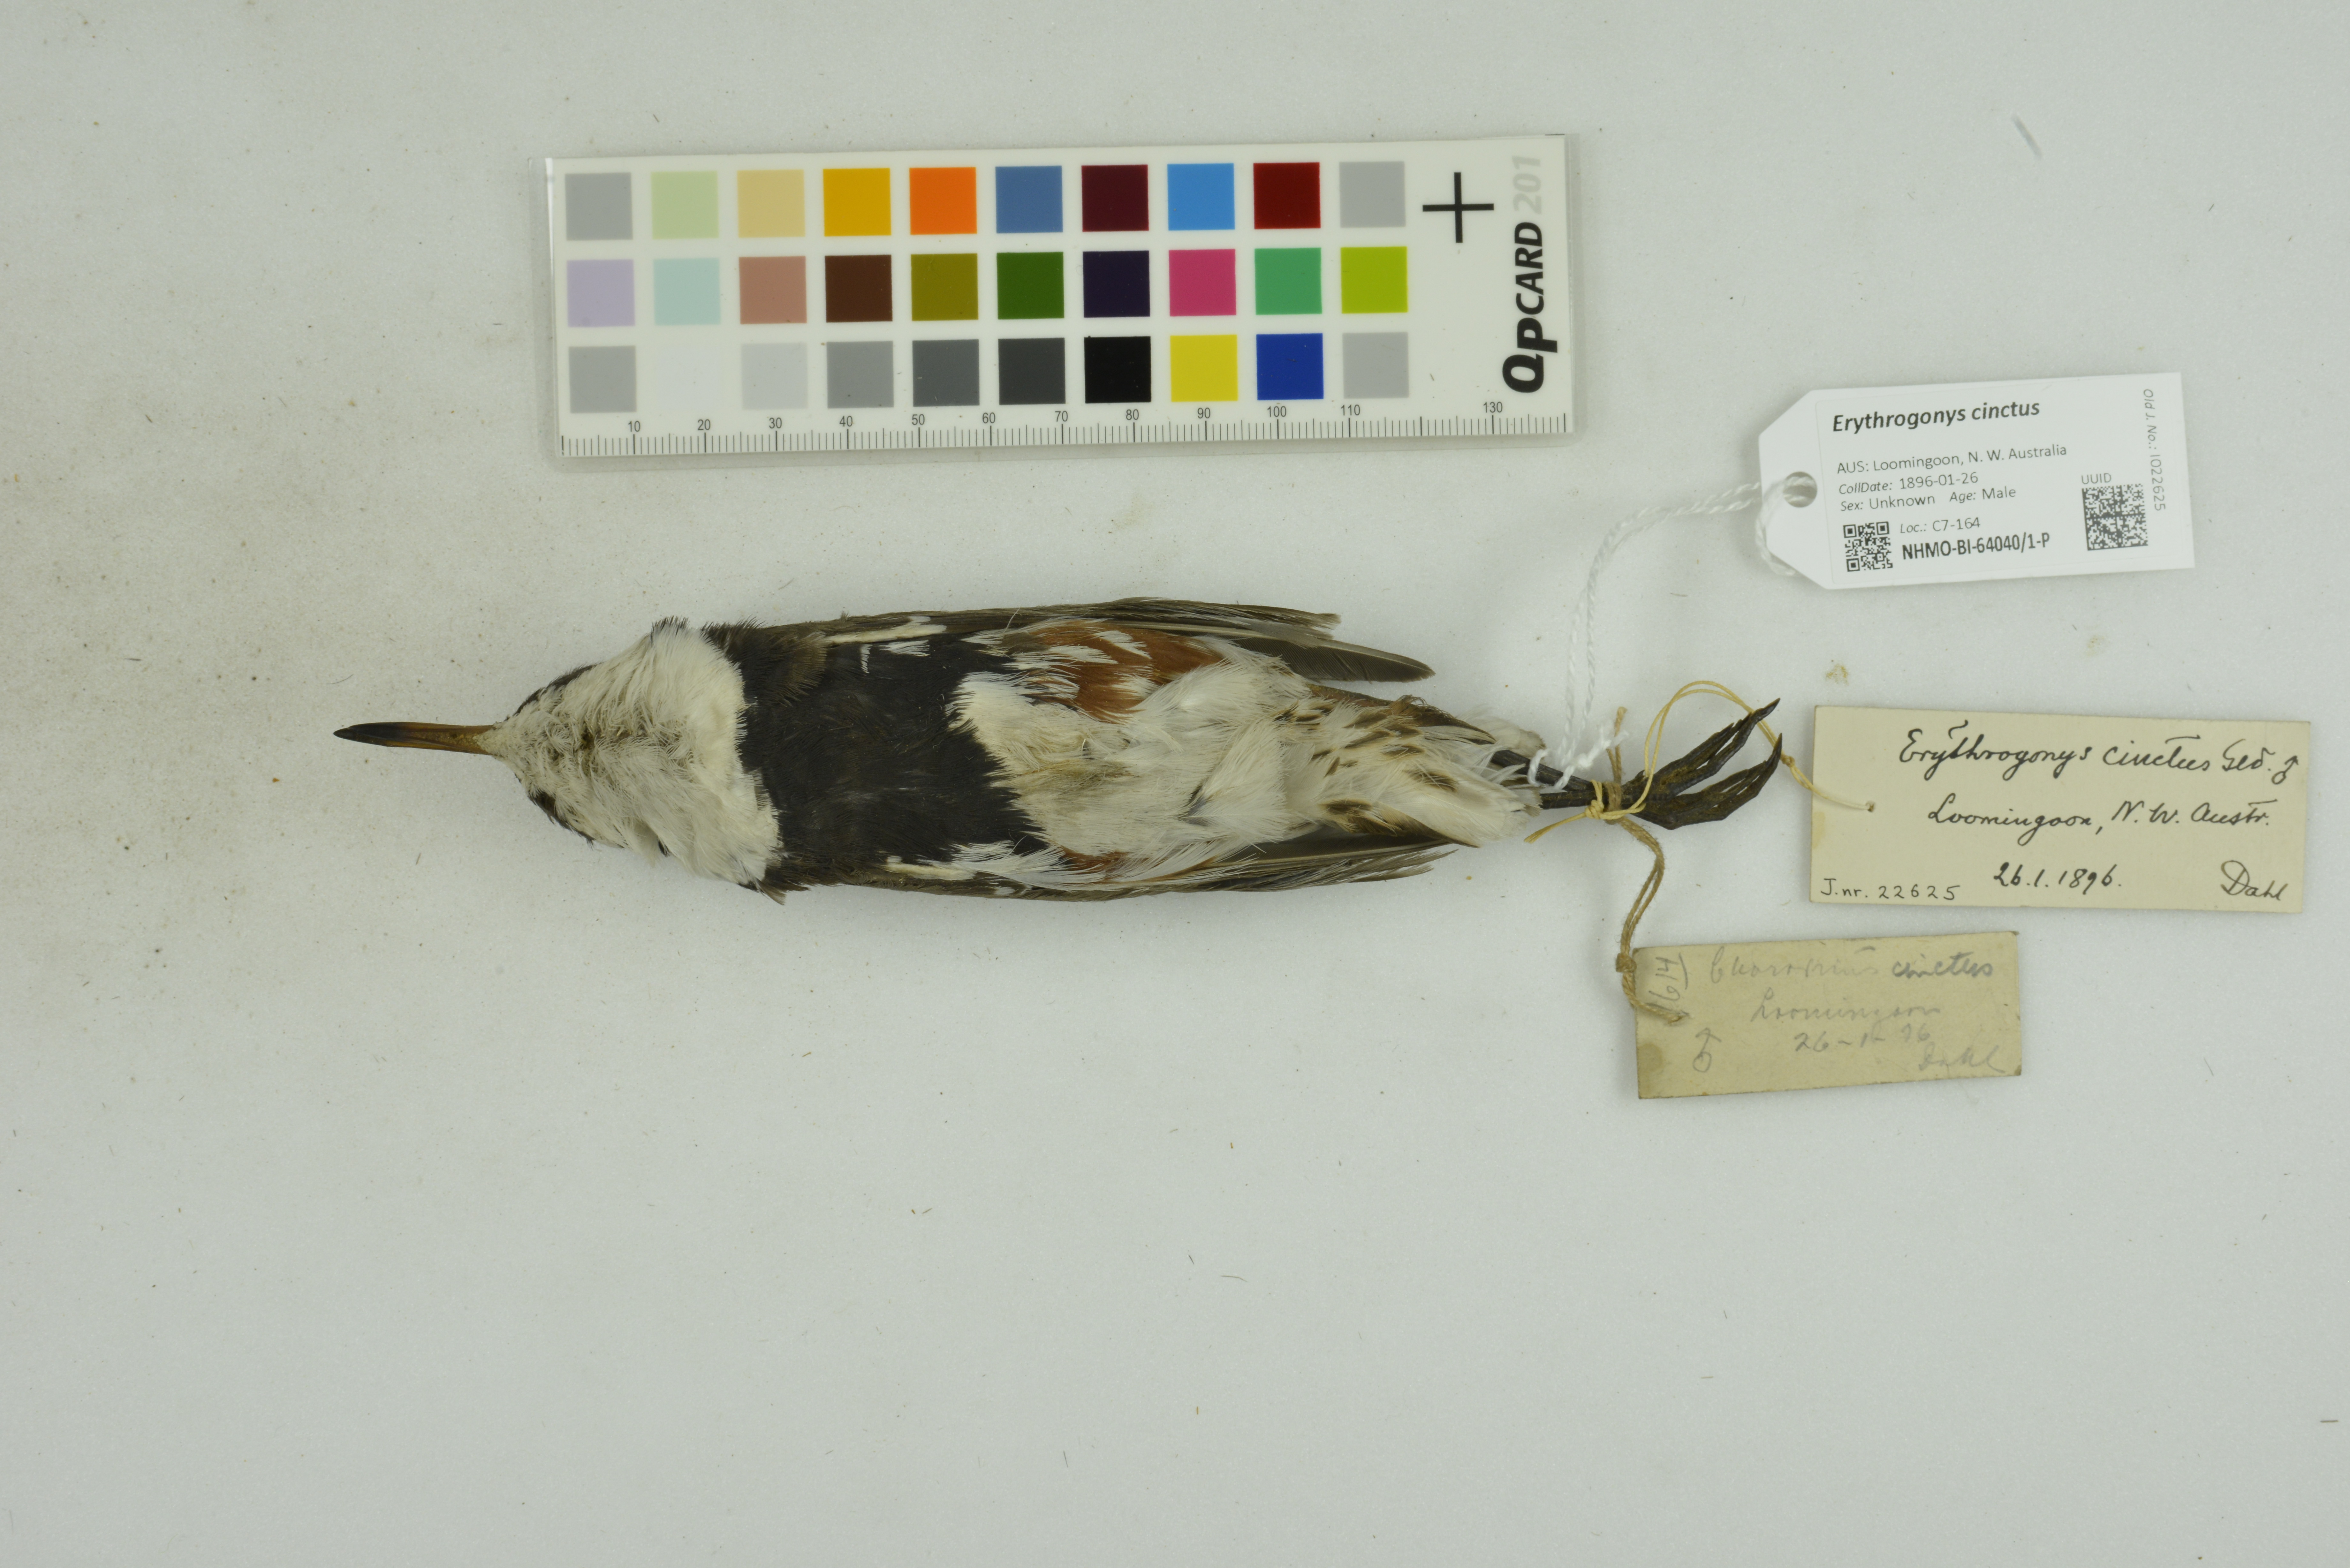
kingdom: Animalia
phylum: Chordata
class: Aves
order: Charadriiformes
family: Charadriidae
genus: Erythrogonys
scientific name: Erythrogonys cinctus
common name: Red-kneed dotterel
